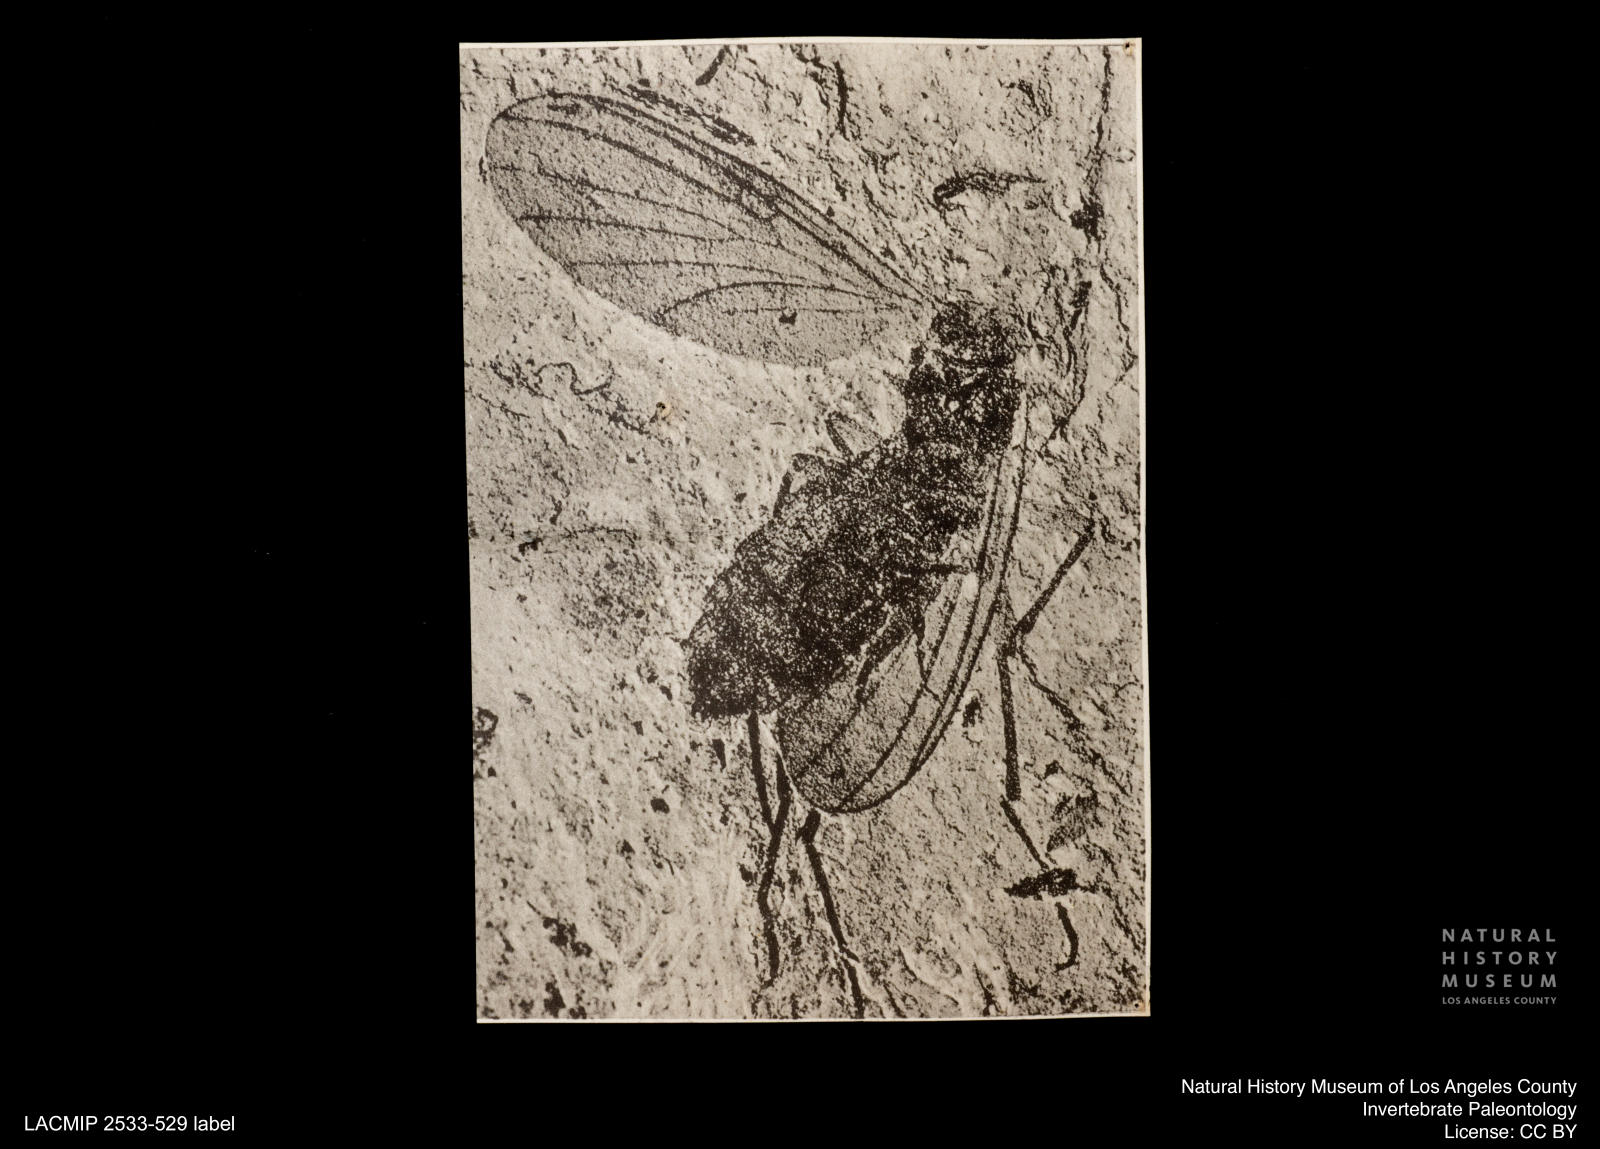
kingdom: Animalia
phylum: Arthropoda
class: Insecta
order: Diptera
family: Mycetophilidae
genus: Mycomya
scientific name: Mycomya kuhni
